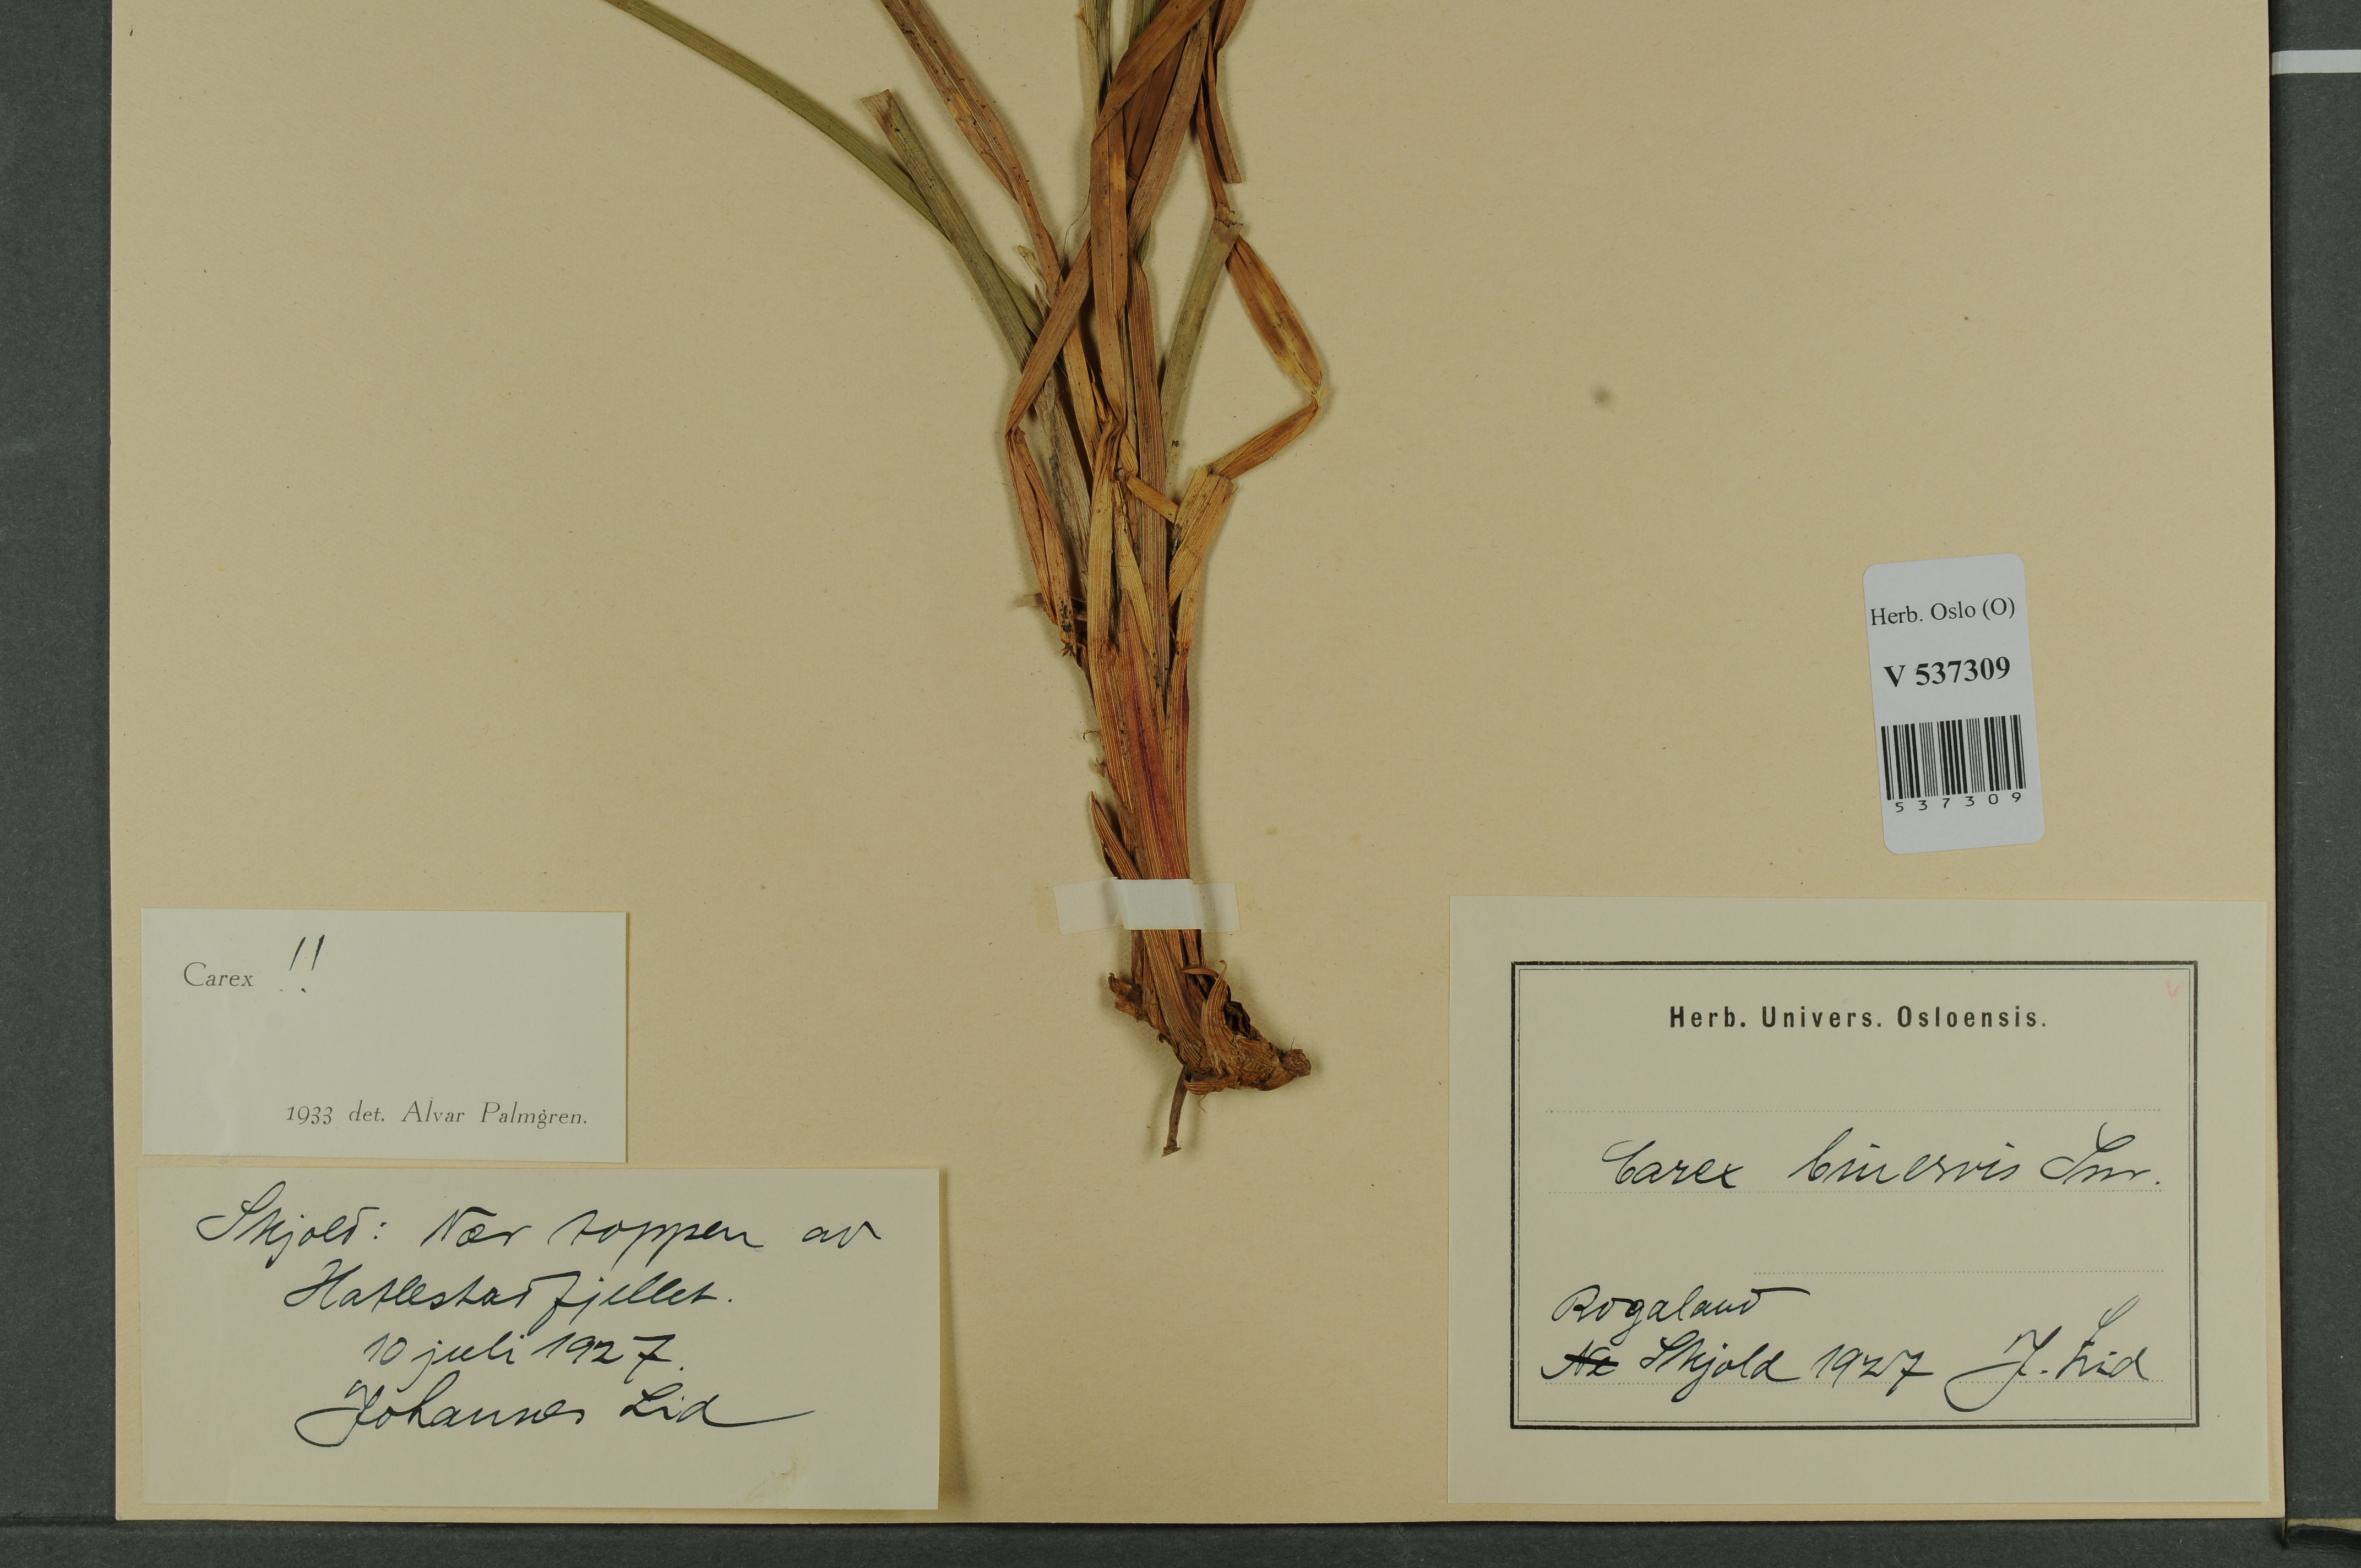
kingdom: Plantae
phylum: Tracheophyta
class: Liliopsida
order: Poales
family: Cyperaceae
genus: Carex
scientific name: Carex binervis
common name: Green-ribbed sedge
